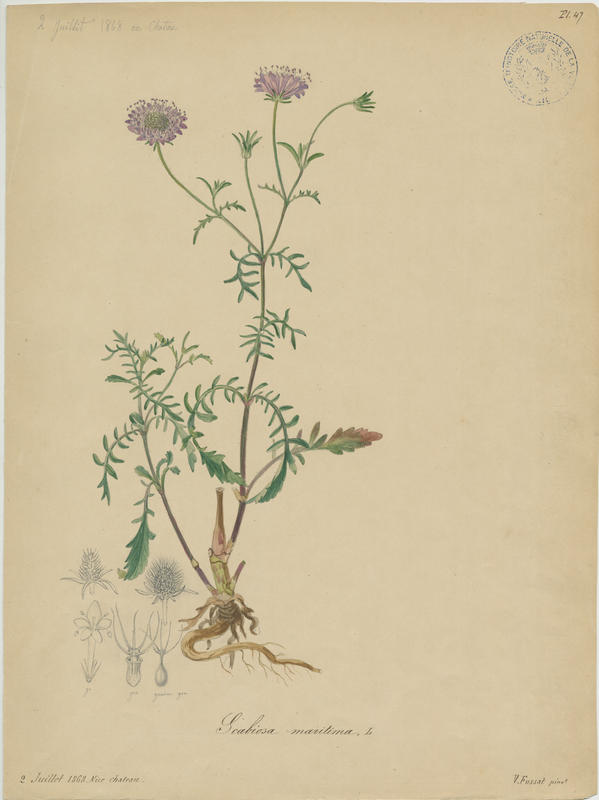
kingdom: Plantae
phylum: Tracheophyta
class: Magnoliopsida
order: Dipsacales
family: Caprifoliaceae
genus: Sixalix
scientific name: Sixalix atropurpurea
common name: Sweet scabious
